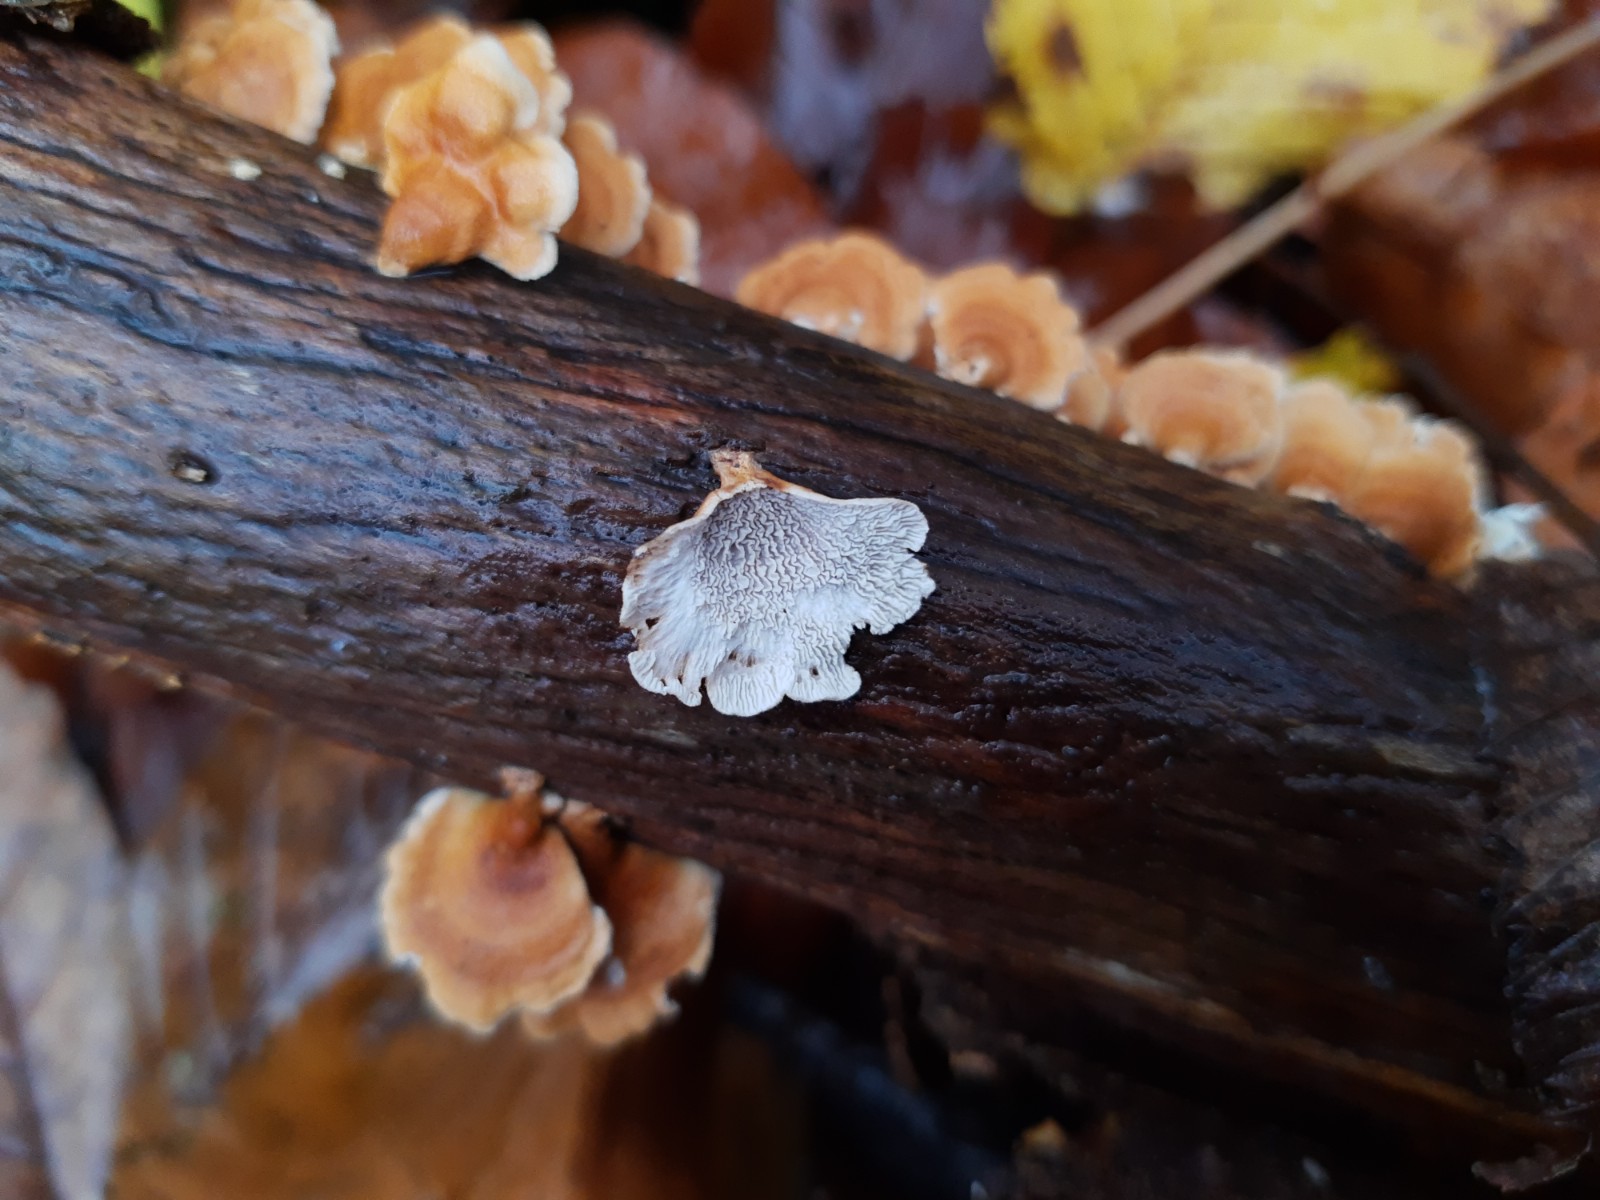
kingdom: Fungi
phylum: Basidiomycota
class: Agaricomycetes
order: Amylocorticiales
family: Amylocorticiaceae
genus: Plicaturopsis
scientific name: Plicaturopsis crispa
